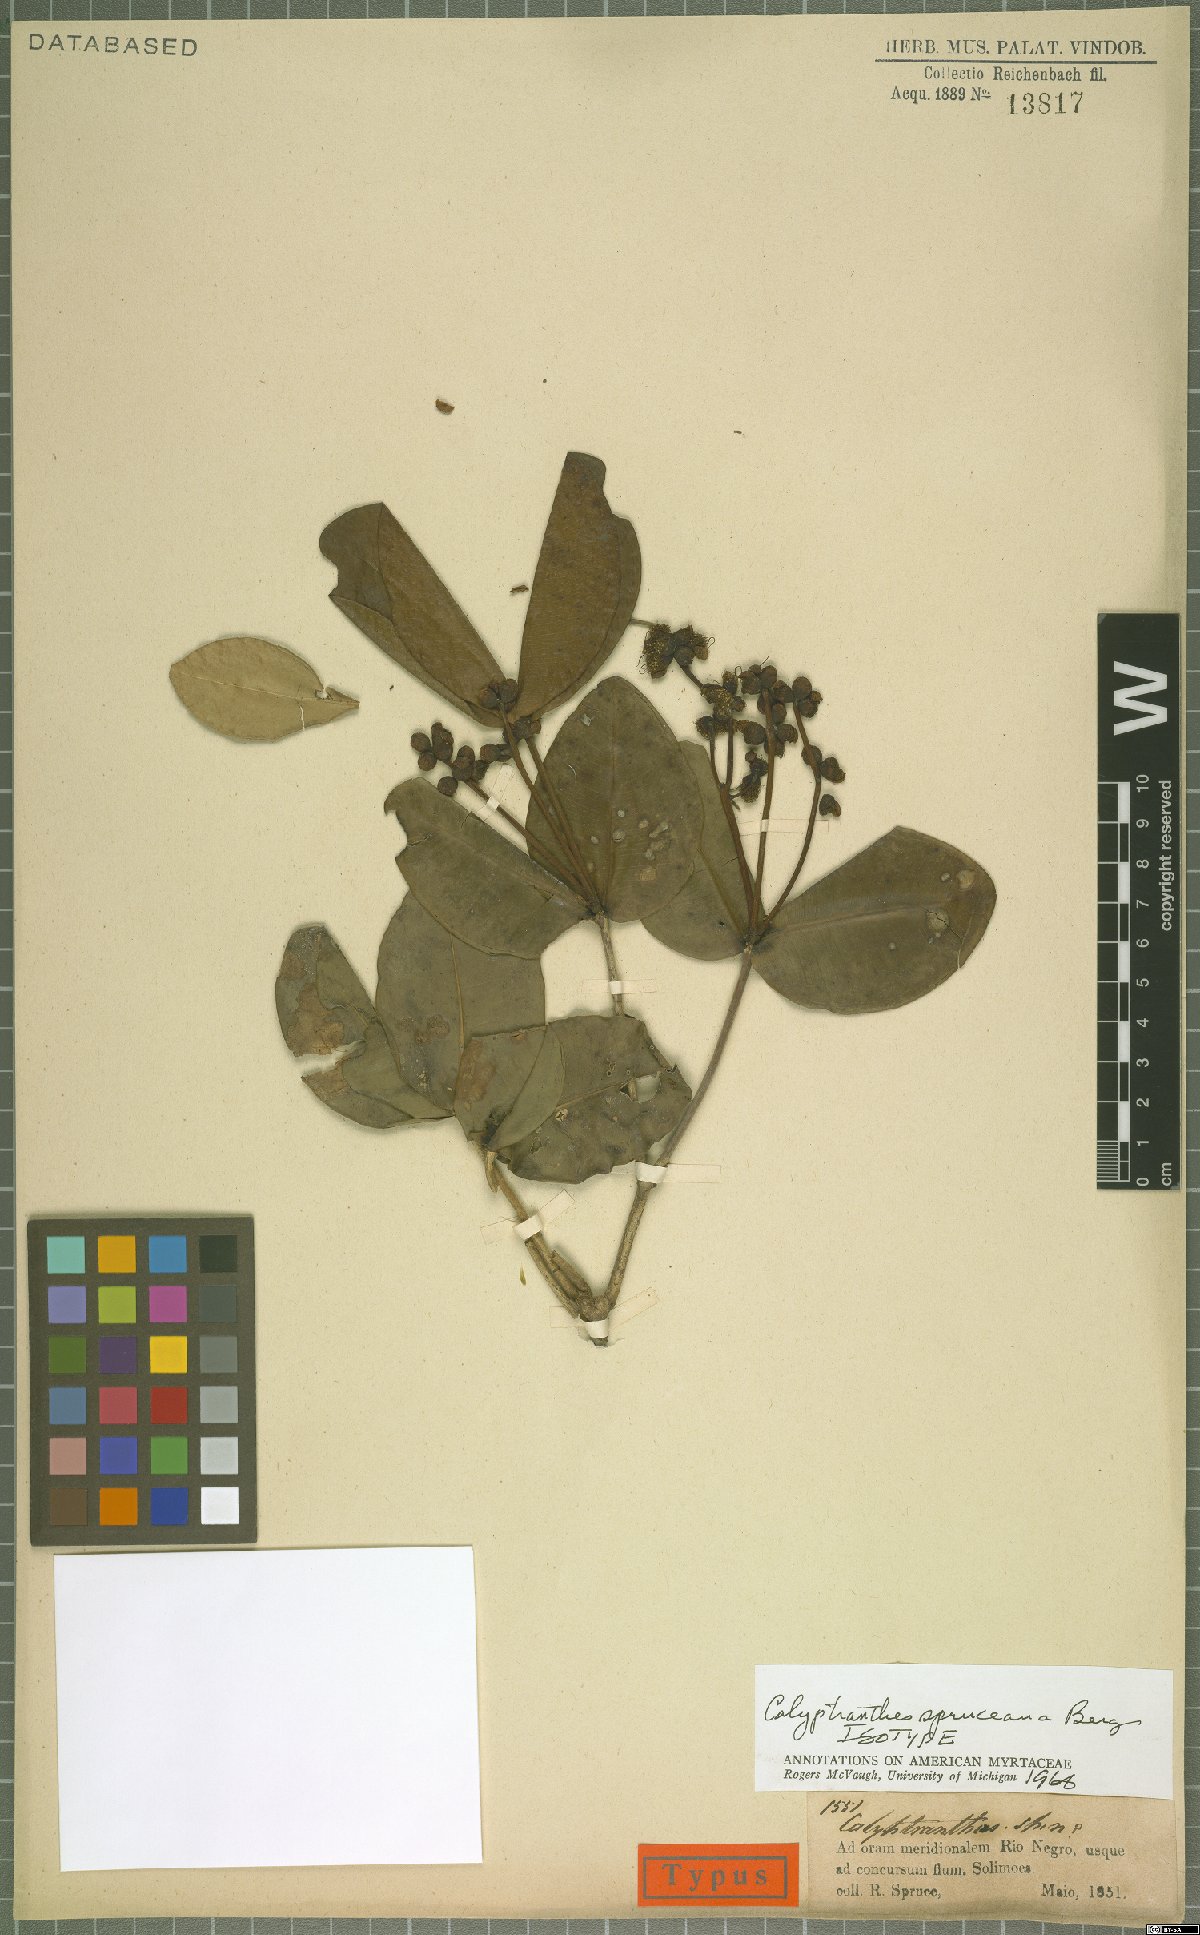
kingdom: Plantae
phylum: Tracheophyta
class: Magnoliopsida
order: Myrtales
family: Myrtaceae
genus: Myrcia
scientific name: Myrcia hedraiophylla
